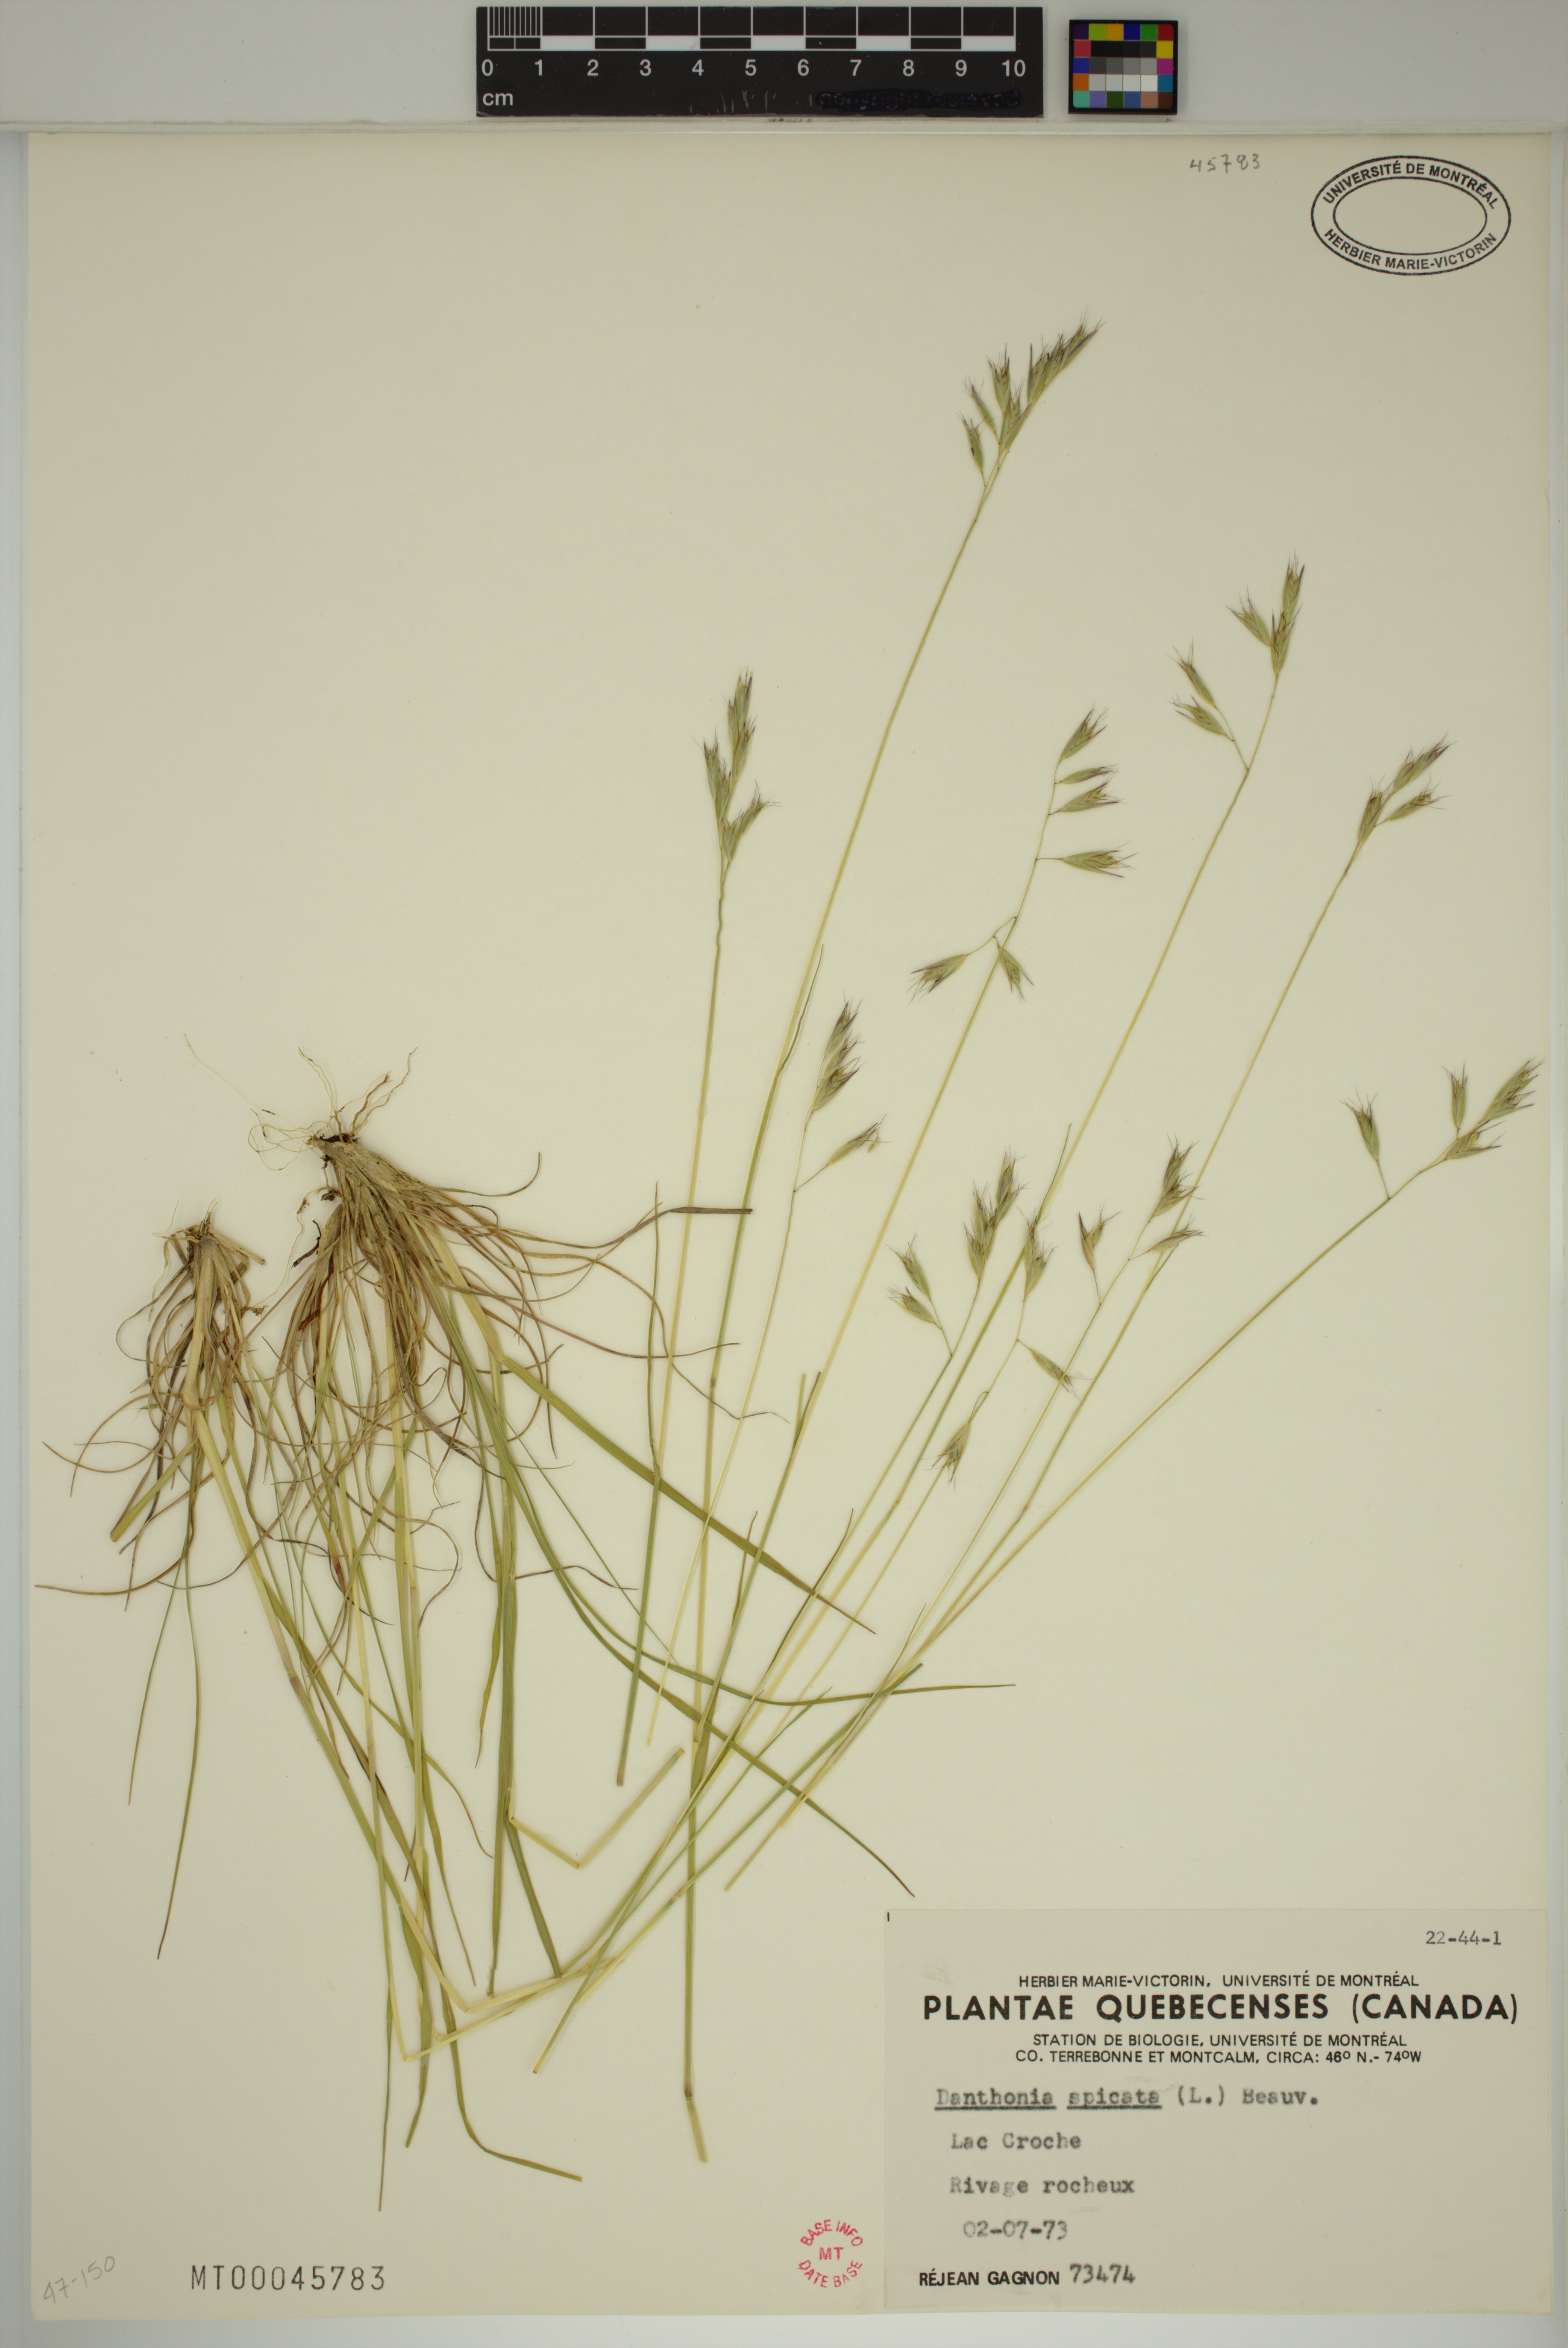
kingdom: Plantae
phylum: Tracheophyta
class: Liliopsida
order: Poales
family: Poaceae
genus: Danthonia
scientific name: Danthonia spicata
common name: Common wild oatgrass
